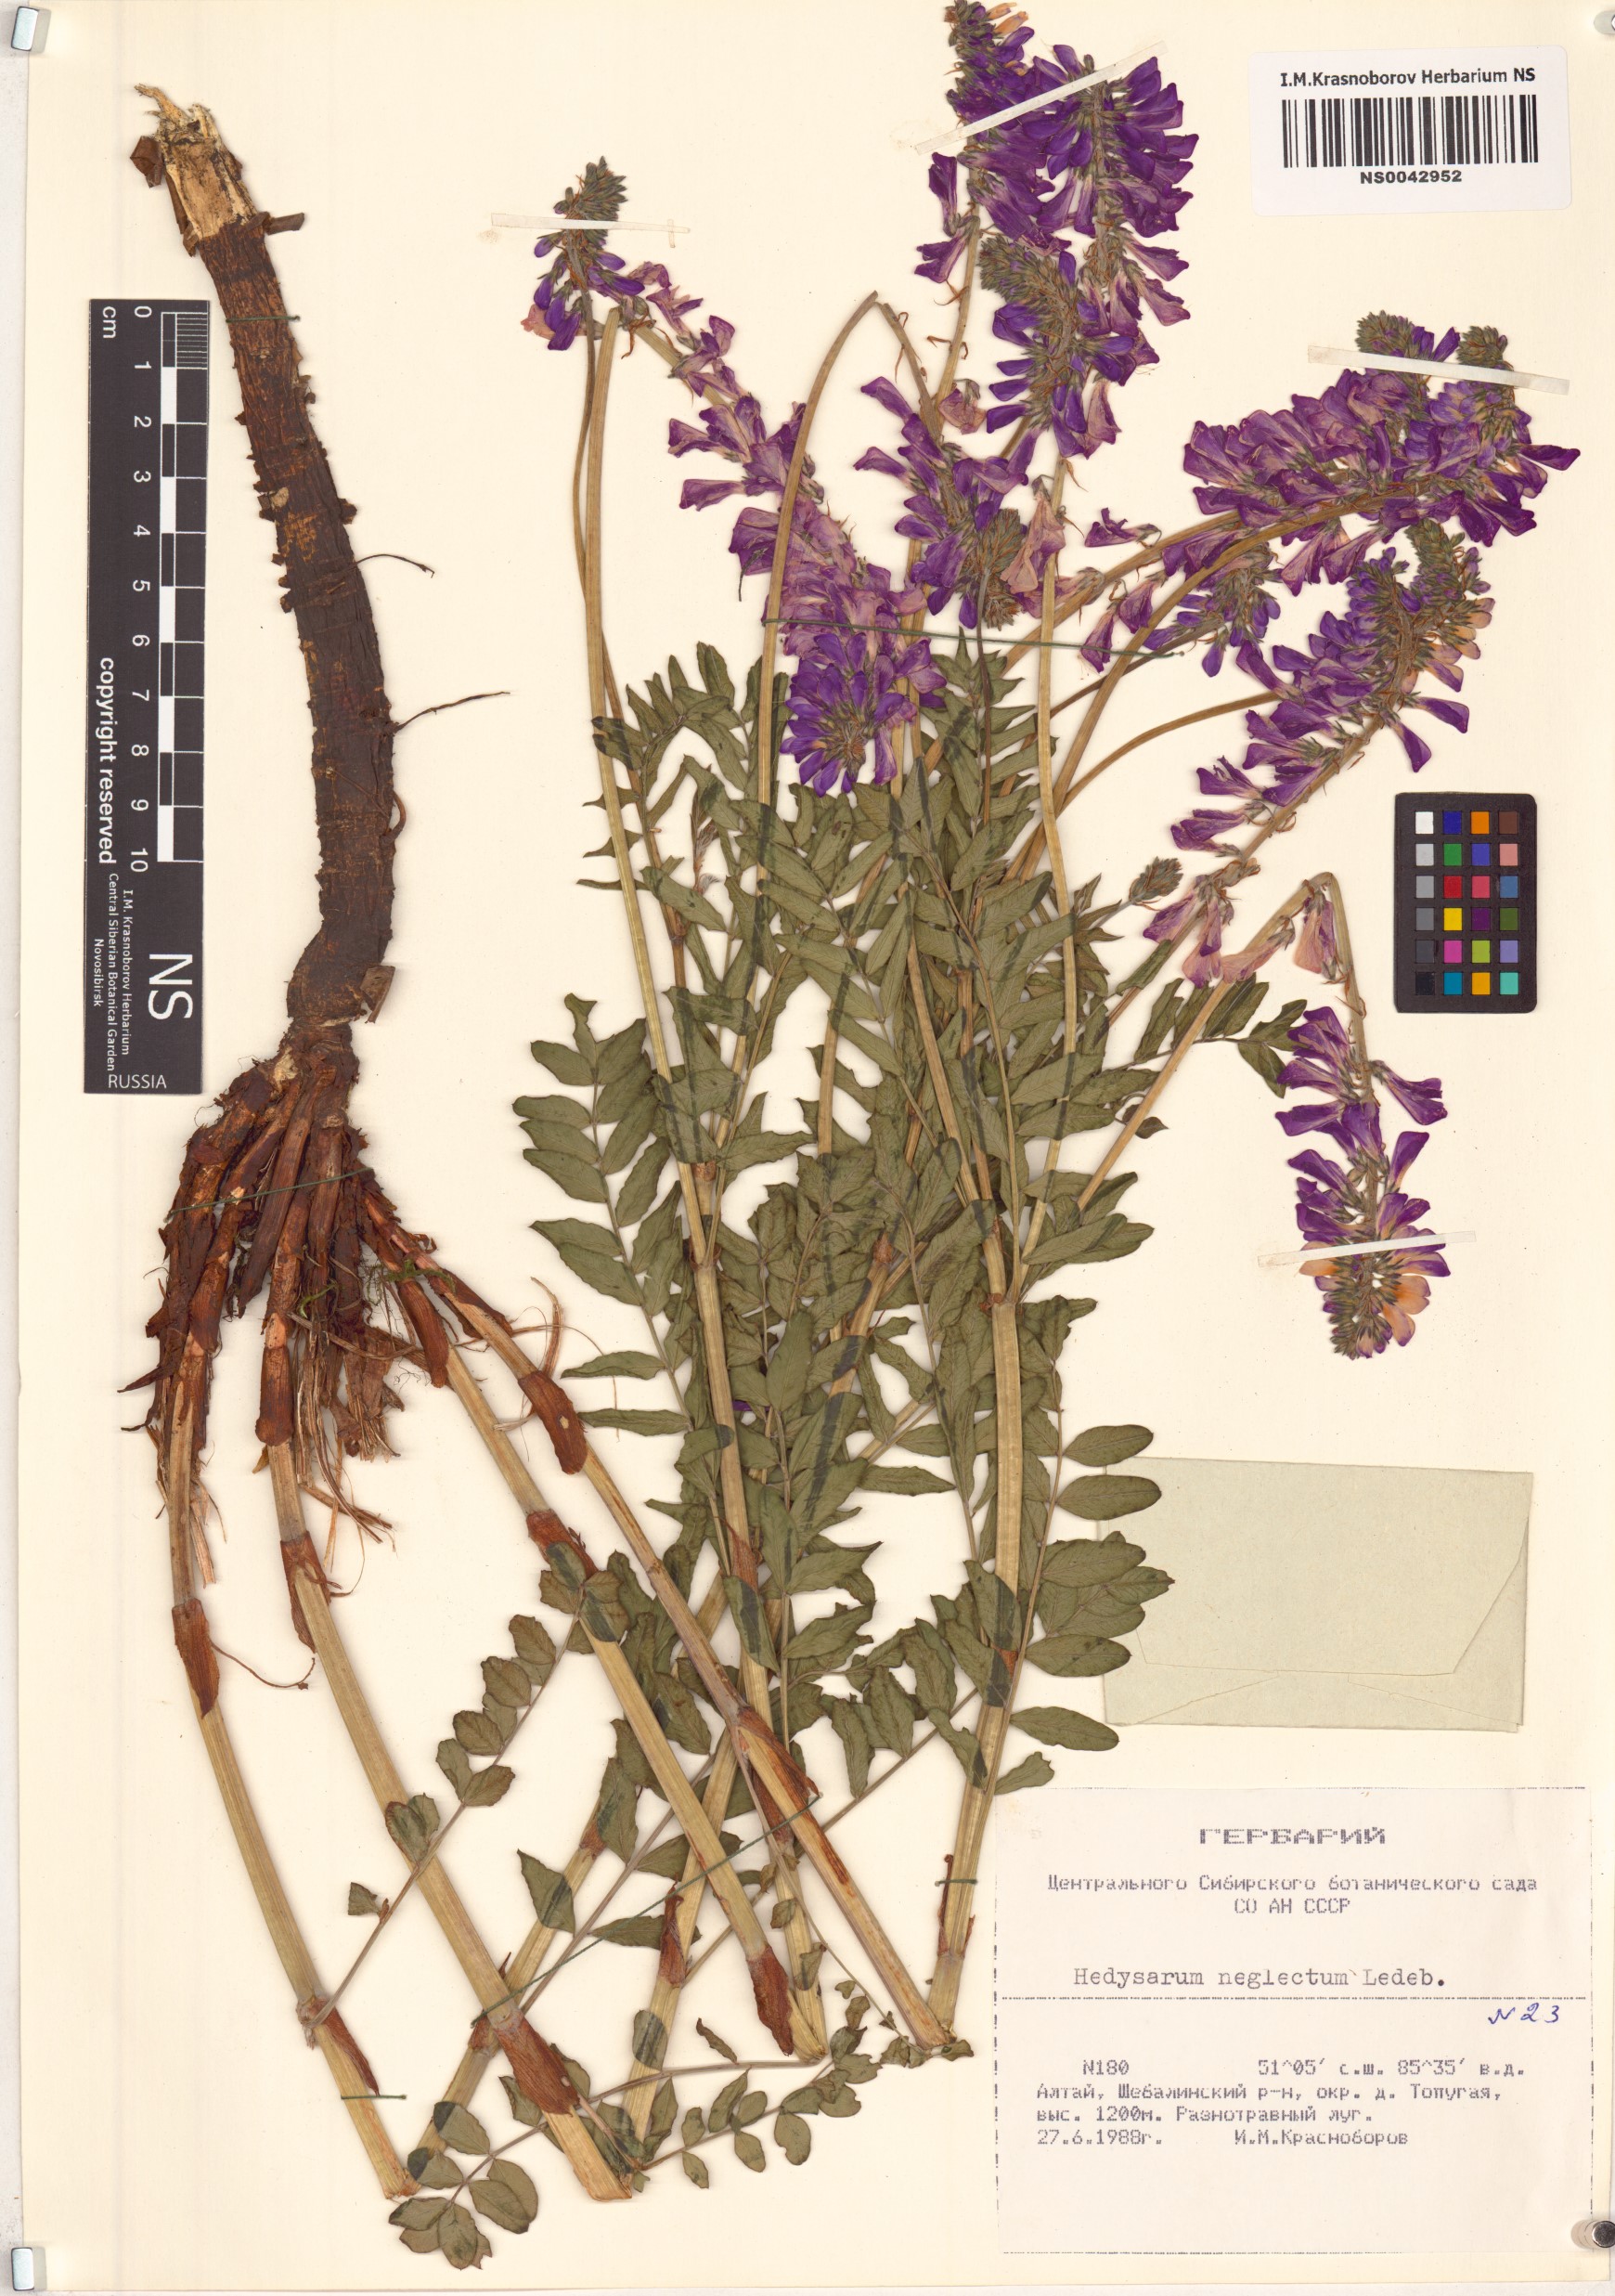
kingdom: Plantae
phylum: Tracheophyta
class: Magnoliopsida
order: Fabales
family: Fabaceae
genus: Hedysarum
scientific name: Hedysarum neglectum
